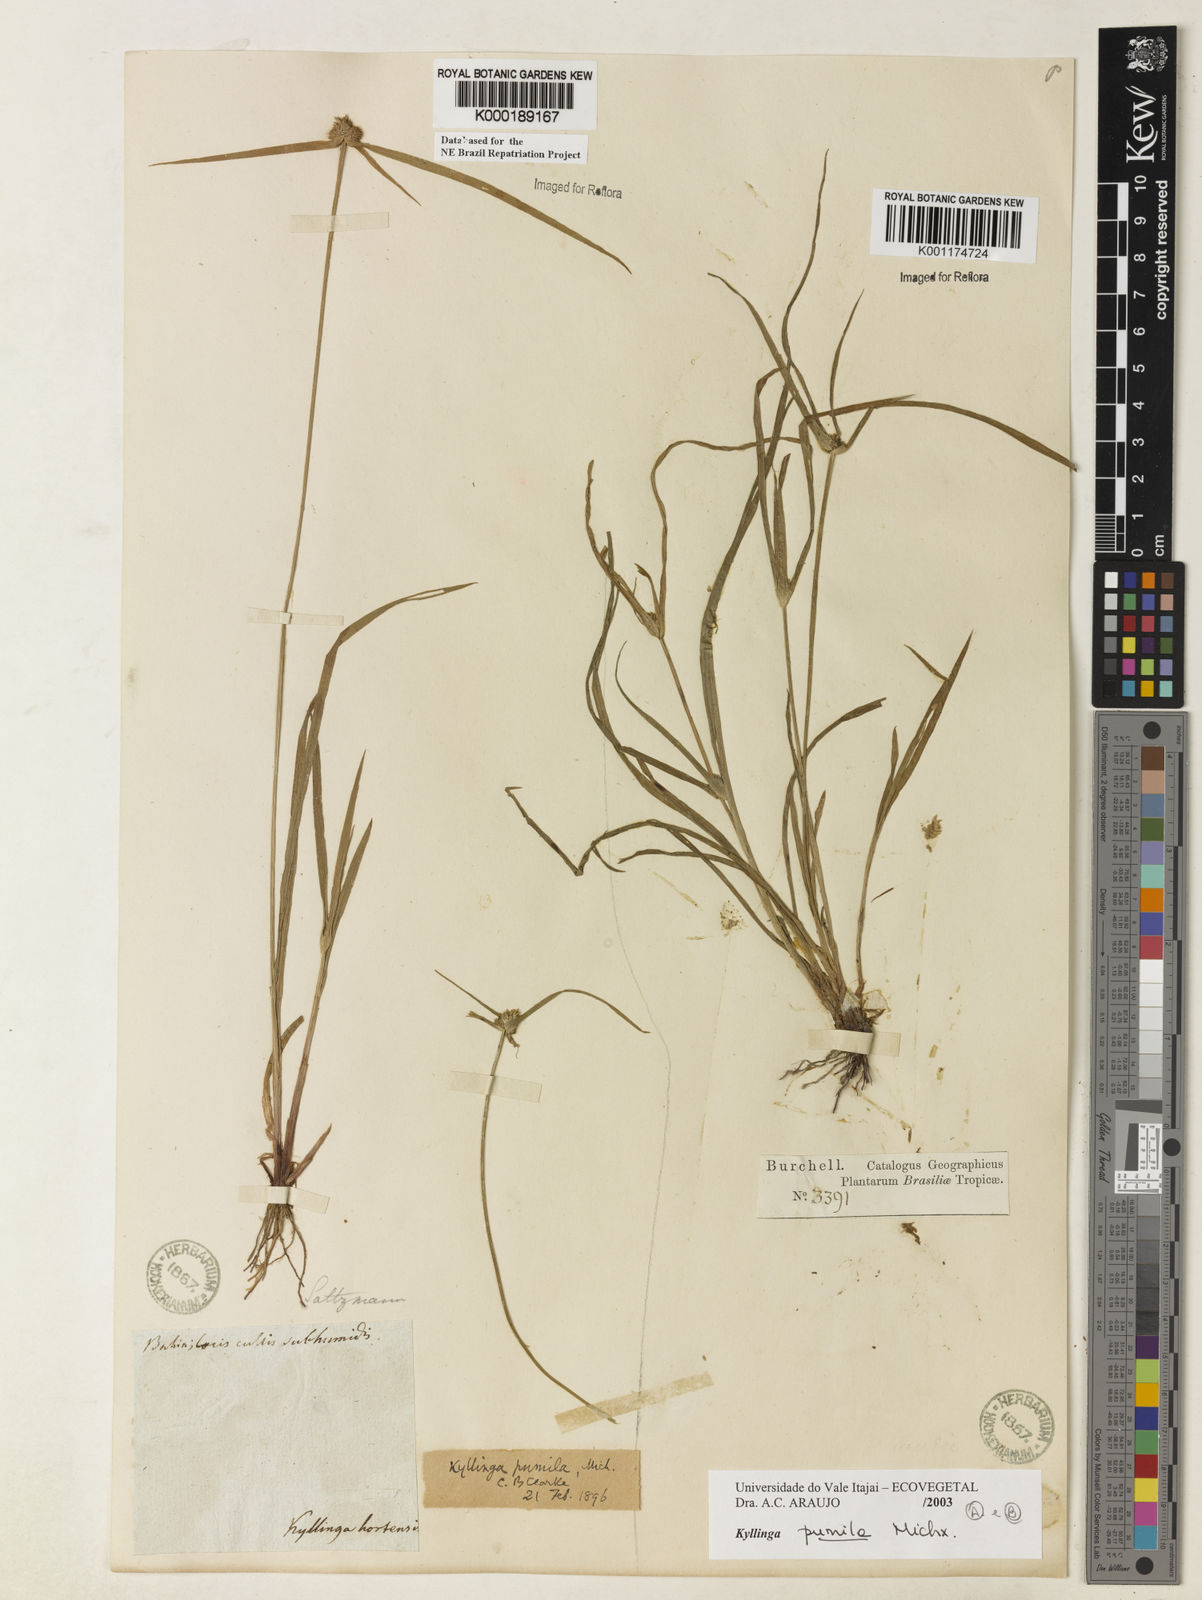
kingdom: Plantae
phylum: Tracheophyta
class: Liliopsida
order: Poales
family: Cyperaceae
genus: Cyperus
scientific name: Cyperus hortensis
